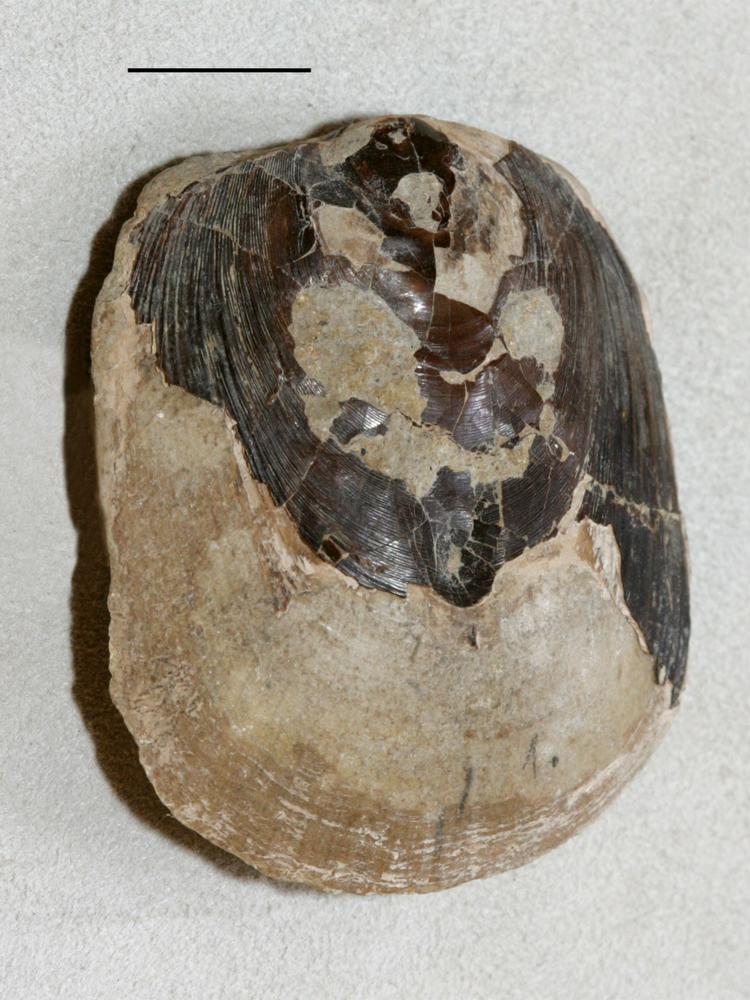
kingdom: Animalia
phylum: Brachiopoda
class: Lingulata
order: Lingulida
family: Pseudolingulidae
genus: Pseudolingula
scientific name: Pseudolingula Crania quadrata
